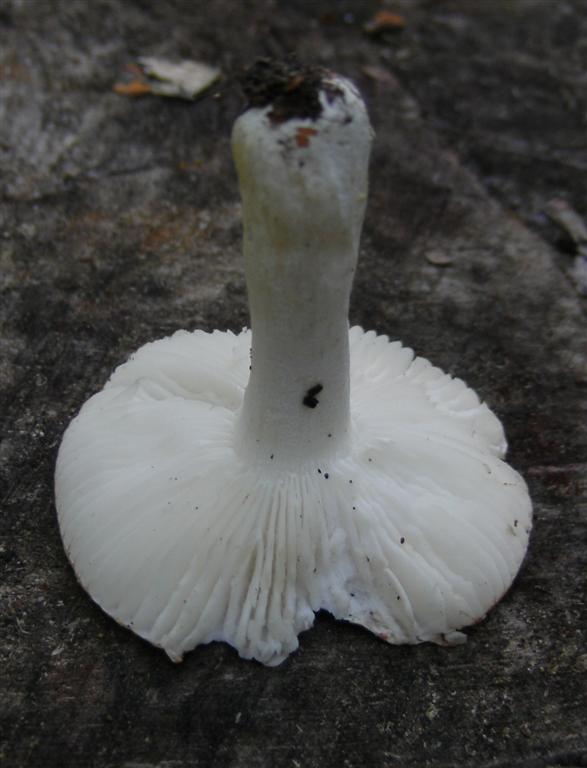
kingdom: Fungi
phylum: Basidiomycota
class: Agaricomycetes
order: Russulales
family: Russulaceae
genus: Russula
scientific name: Russula roseoaurantia
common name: kornet skørhat
